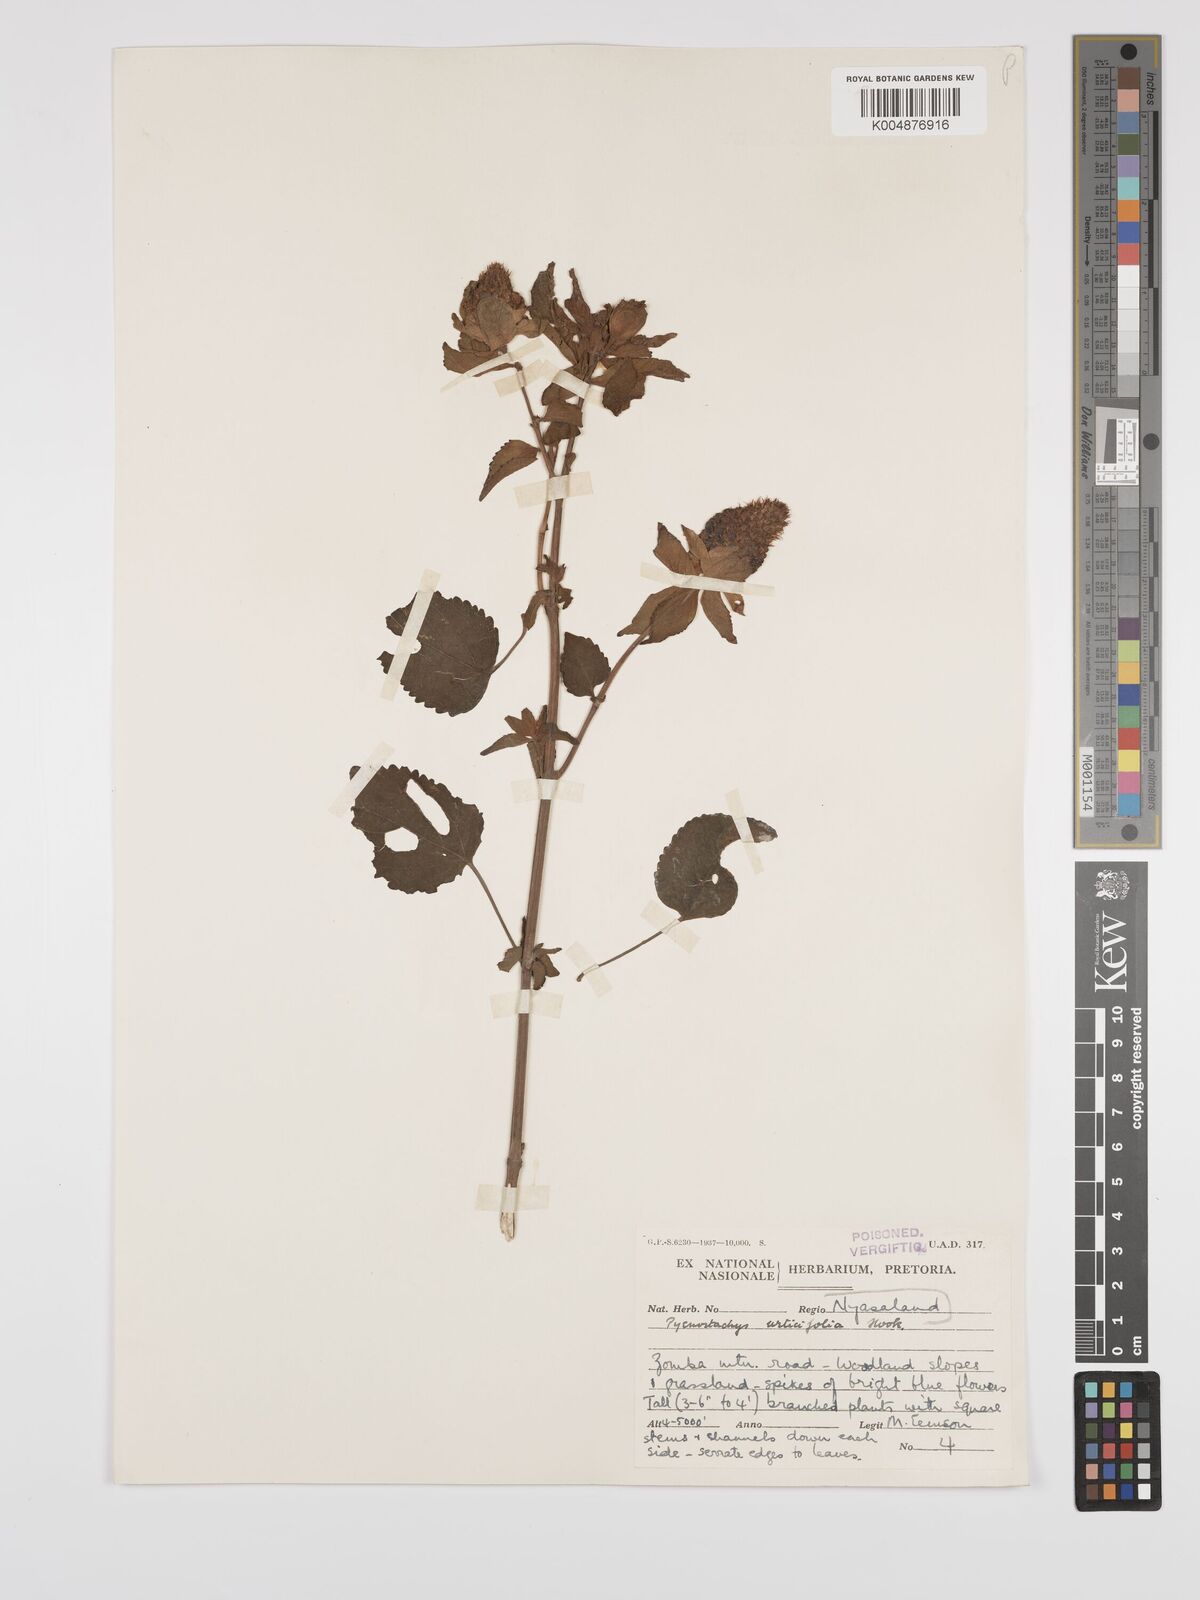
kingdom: Plantae
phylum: Tracheophyta
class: Magnoliopsida
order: Lamiales
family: Lamiaceae
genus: Coleus
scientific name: Coleus livingstonei
